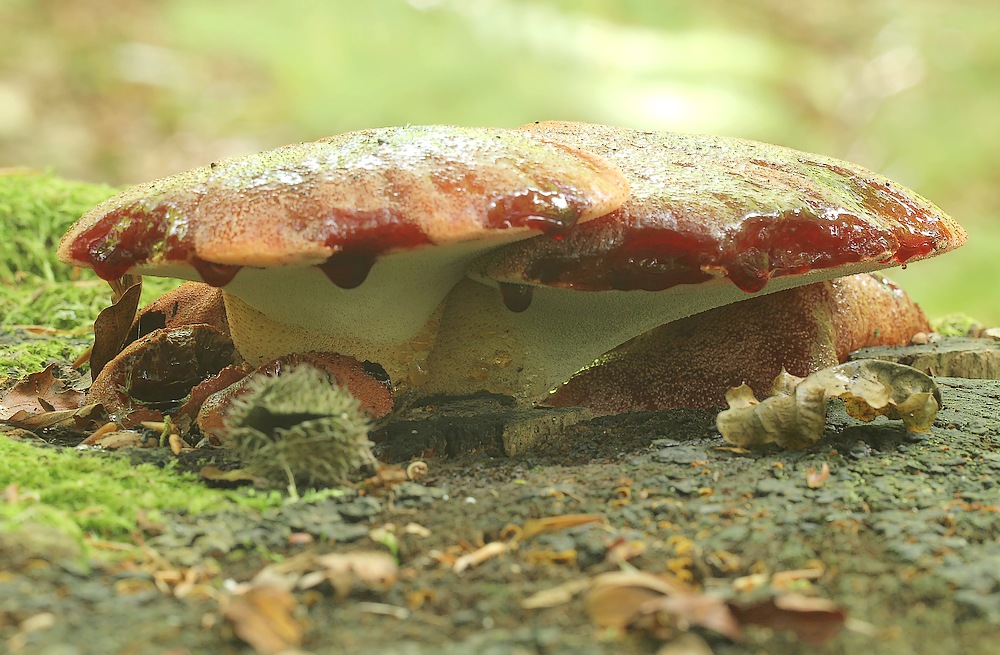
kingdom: Fungi
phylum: Basidiomycota
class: Agaricomycetes
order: Agaricales
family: Fistulinaceae
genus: Fistulina
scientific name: Fistulina hepatica
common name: oksetunge
